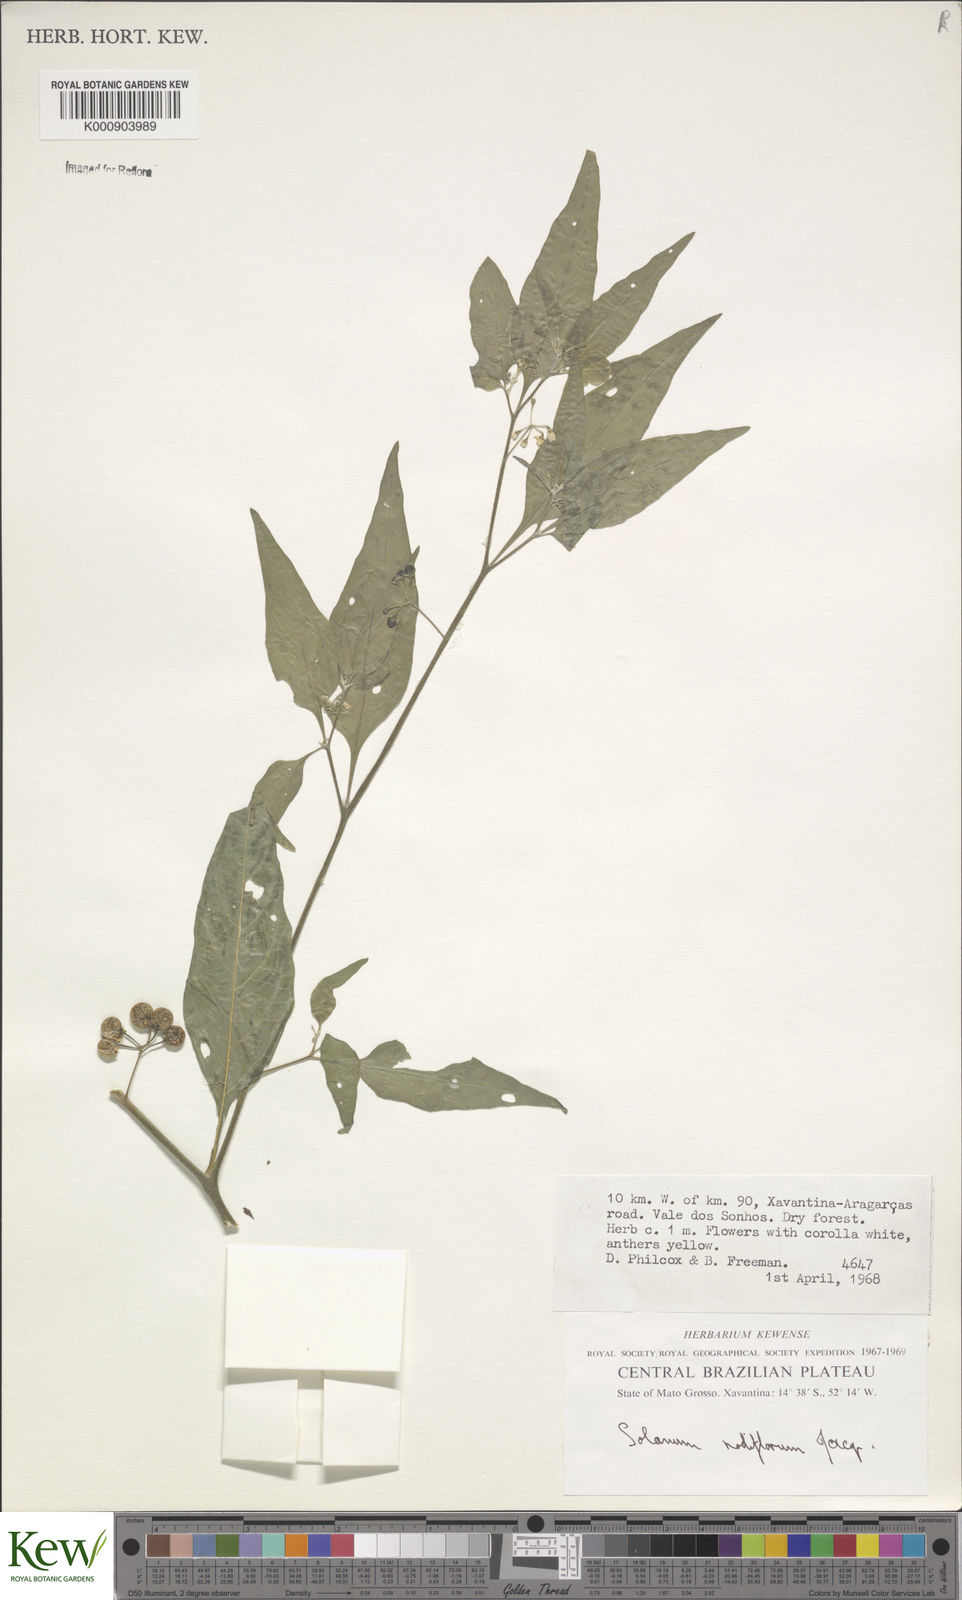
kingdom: Plantae
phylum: Tracheophyta
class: Magnoliopsida
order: Solanales
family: Solanaceae
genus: Solanum
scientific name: Solanum americanum
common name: American black nightshade
